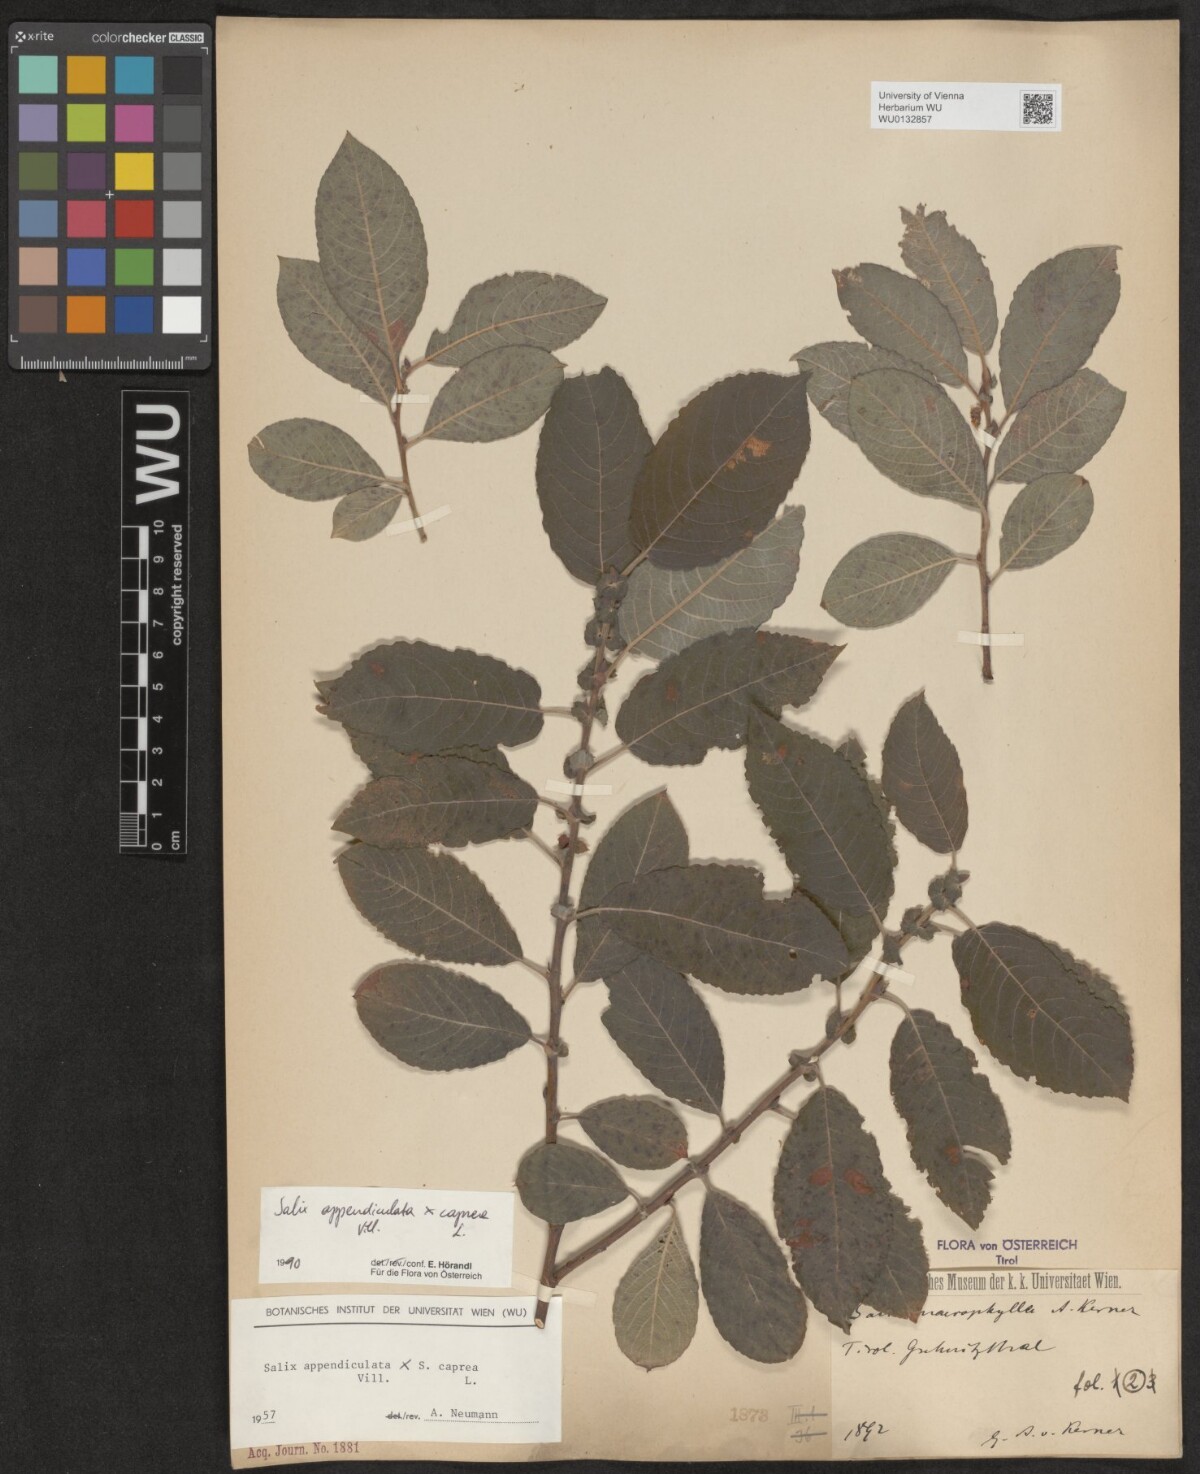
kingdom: Plantae
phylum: Tracheophyta
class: Magnoliopsida
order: Malpighiales
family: Salicaceae
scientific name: Salicaceae
